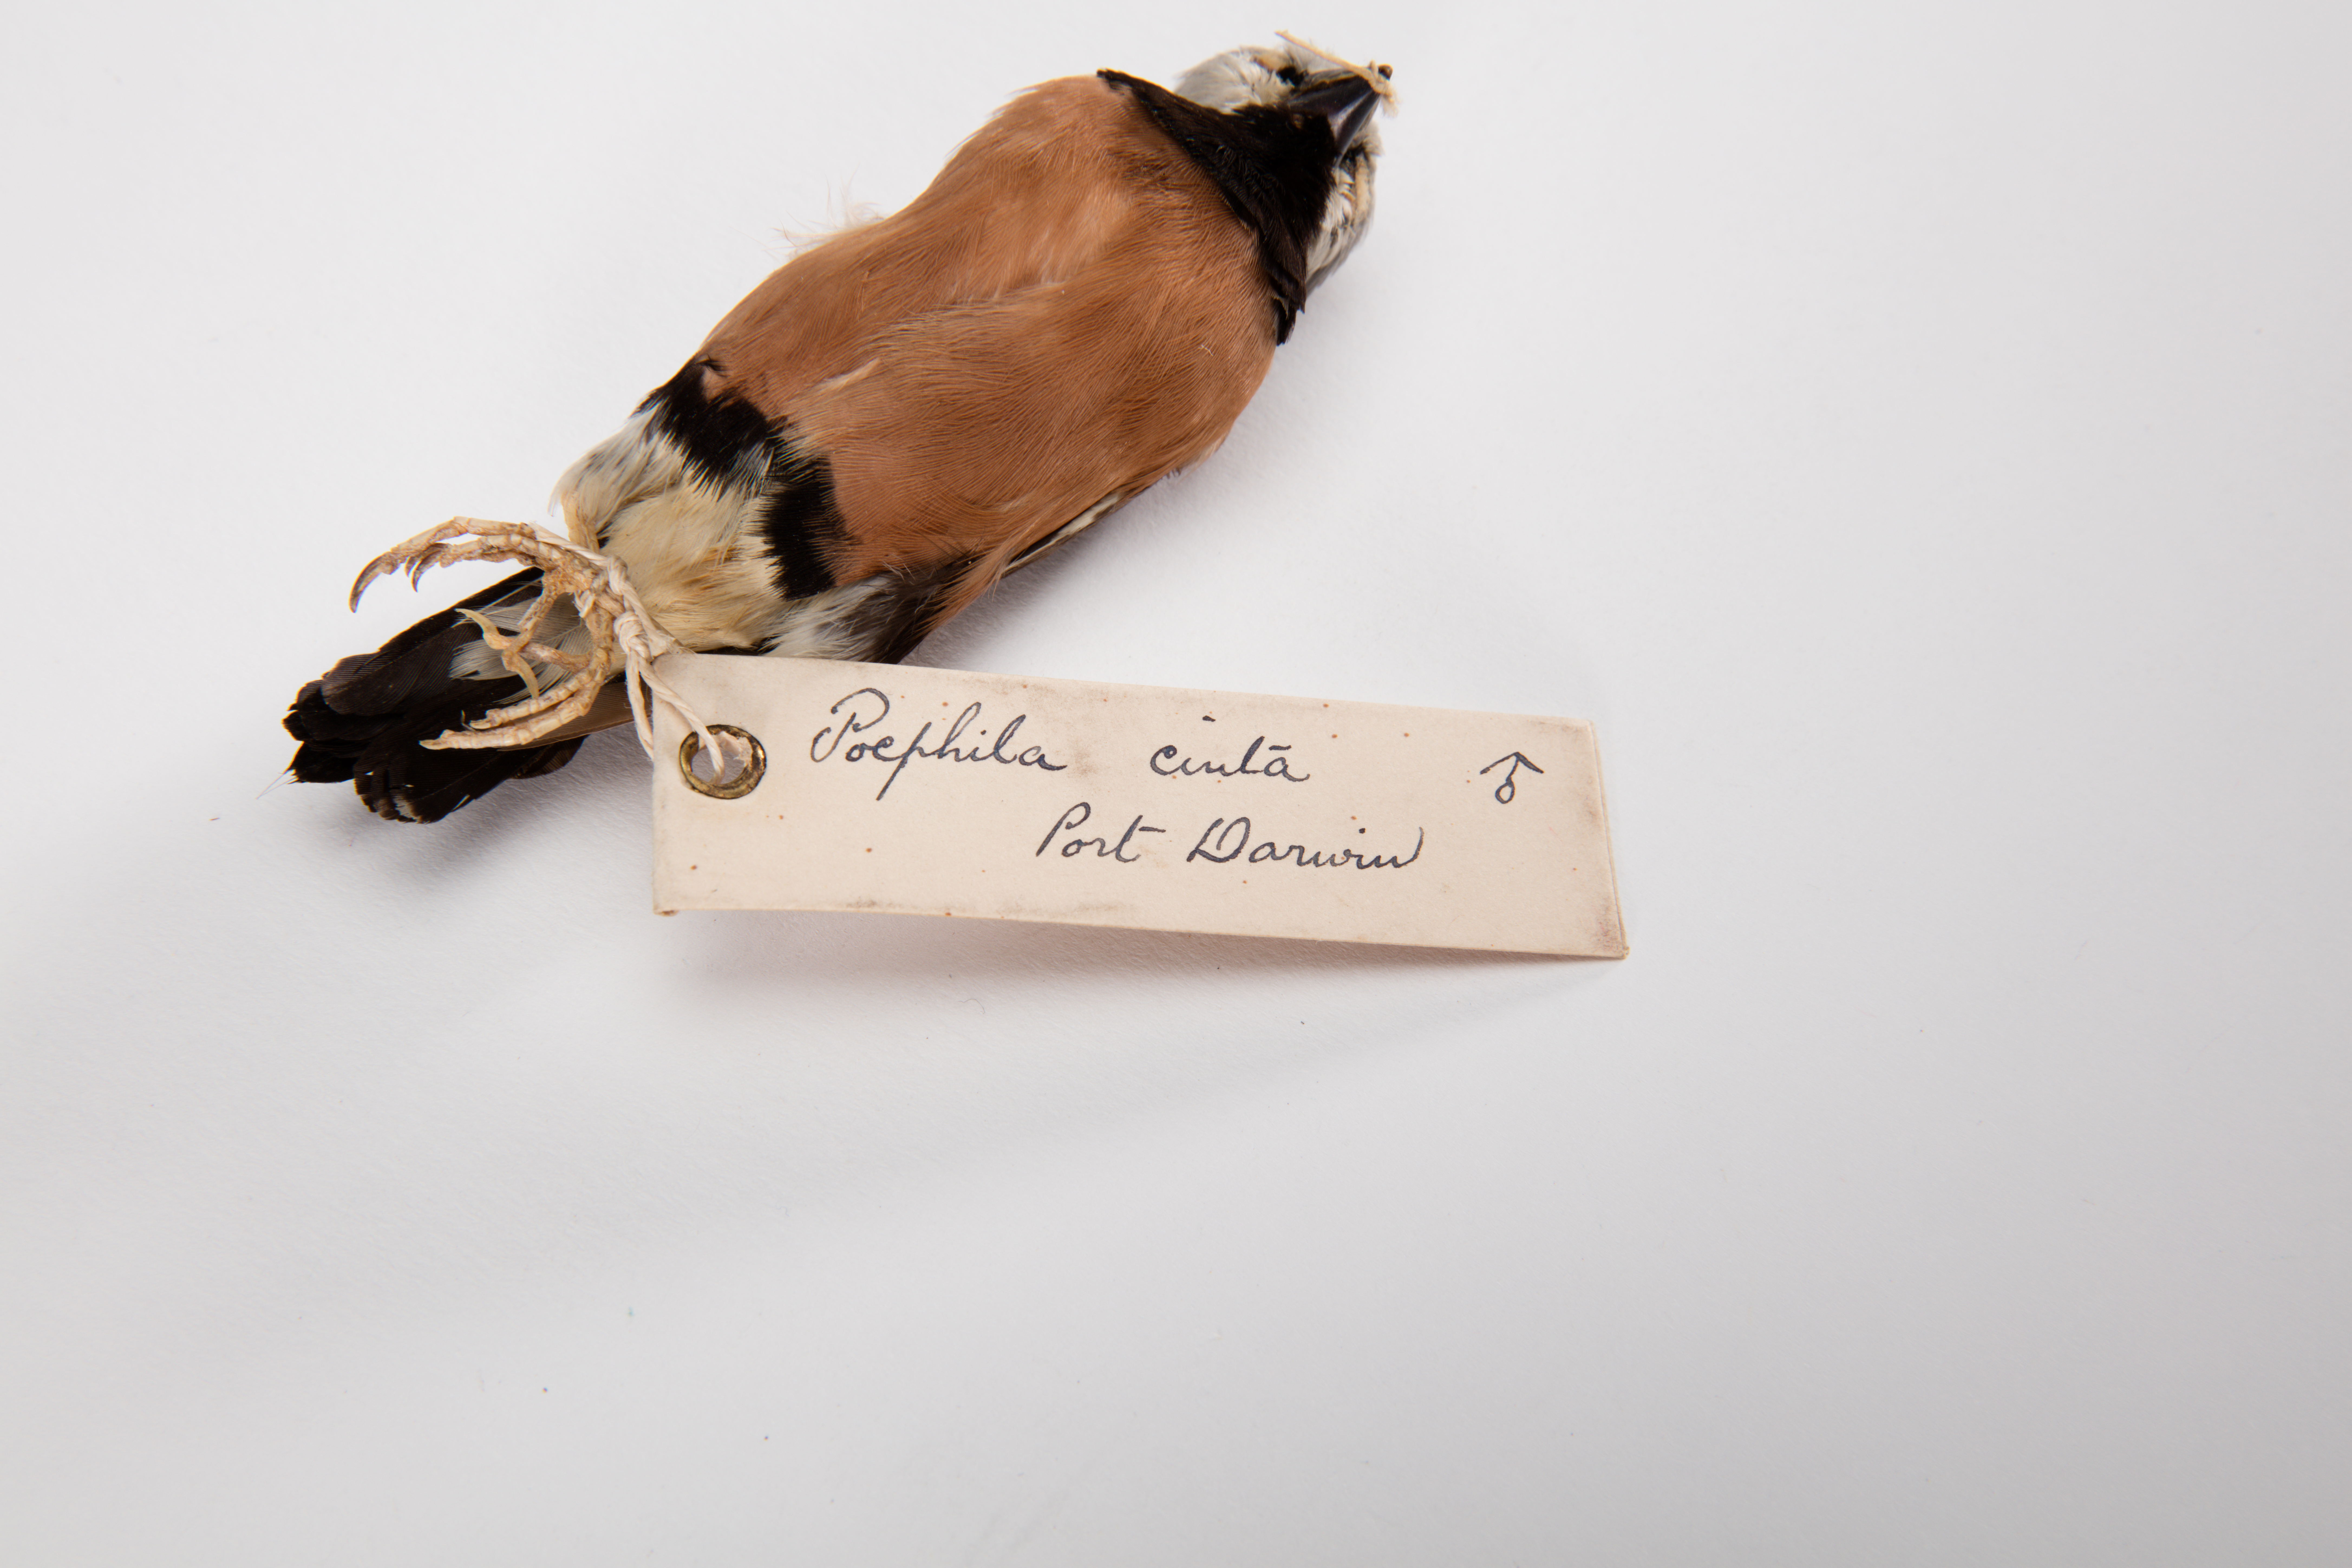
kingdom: Animalia
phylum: Chordata
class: Aves
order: Passeriformes
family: Estrildidae
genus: Poephila
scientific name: Poephila cincta
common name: Black-throated finch
